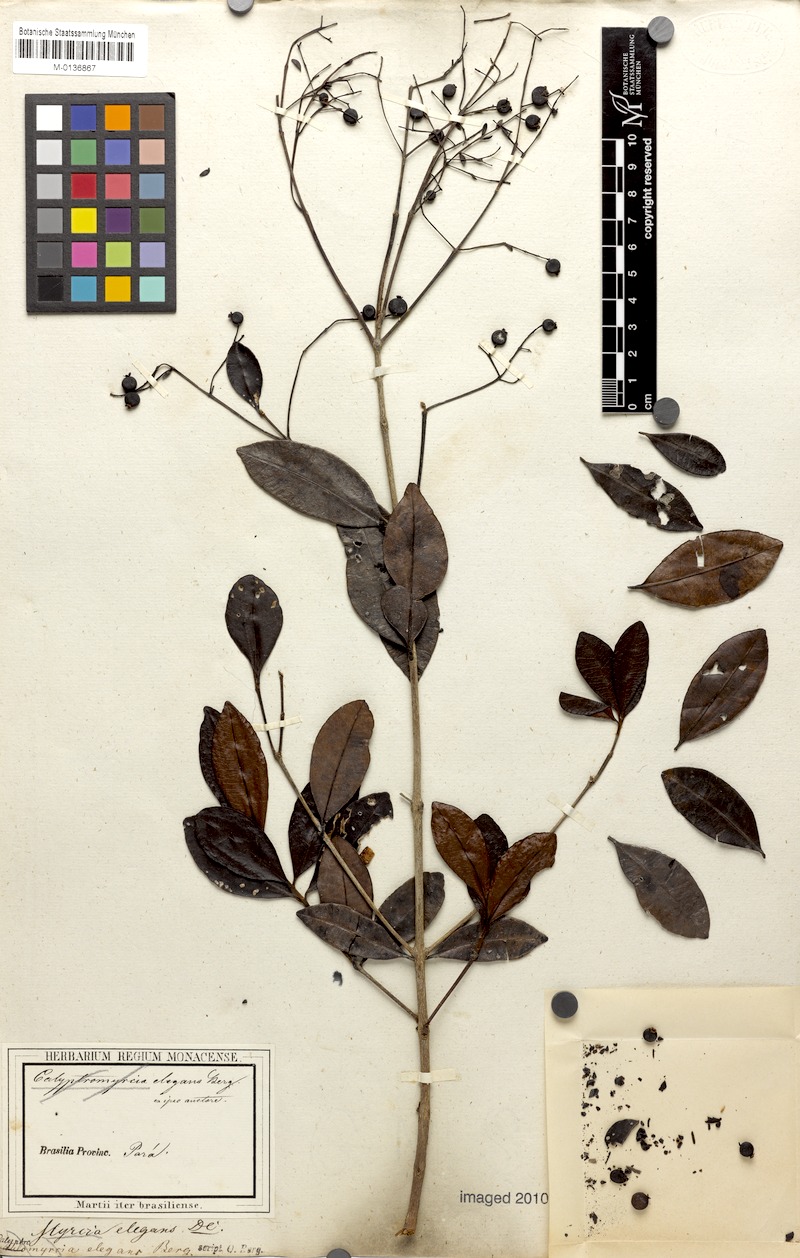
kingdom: Plantae
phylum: Tracheophyta
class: Magnoliopsida
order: Myrtales
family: Myrtaceae
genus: Myrcia
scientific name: Myrcia guianensis
